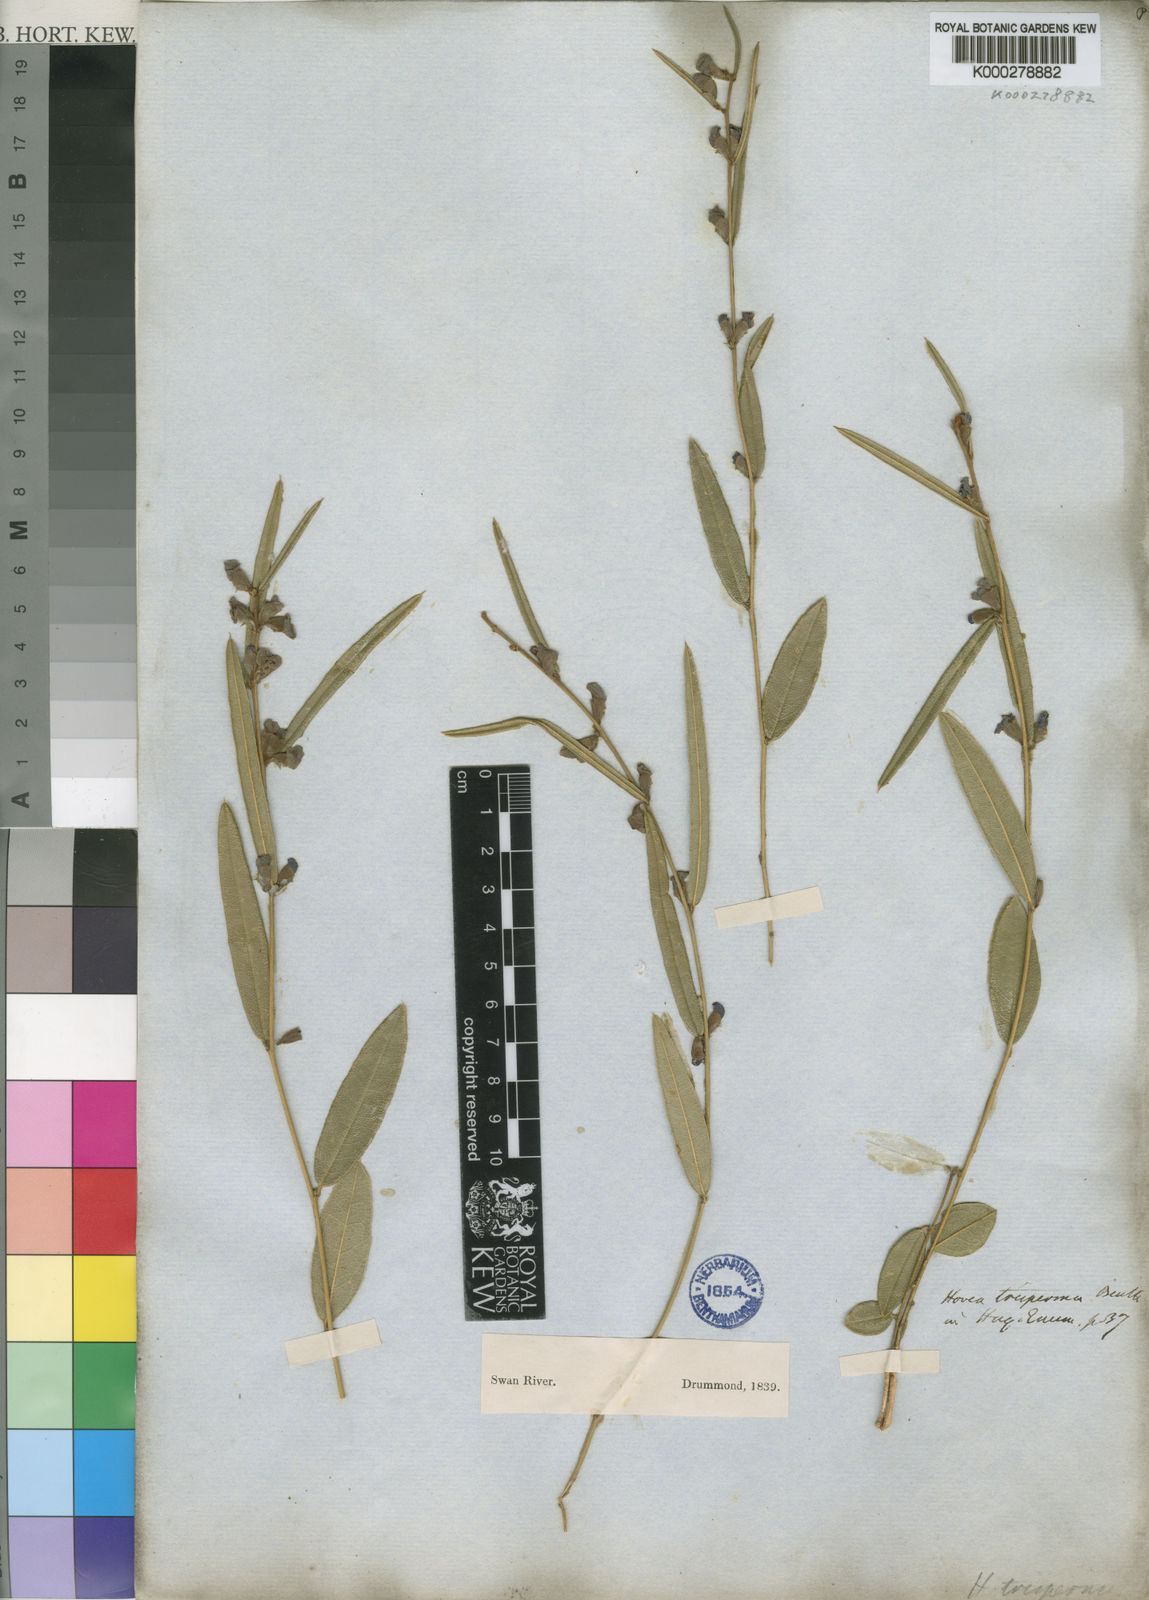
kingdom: Plantae
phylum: Tracheophyta
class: Magnoliopsida
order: Fabales
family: Fabaceae
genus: Hovea
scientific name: Hovea trisperma
